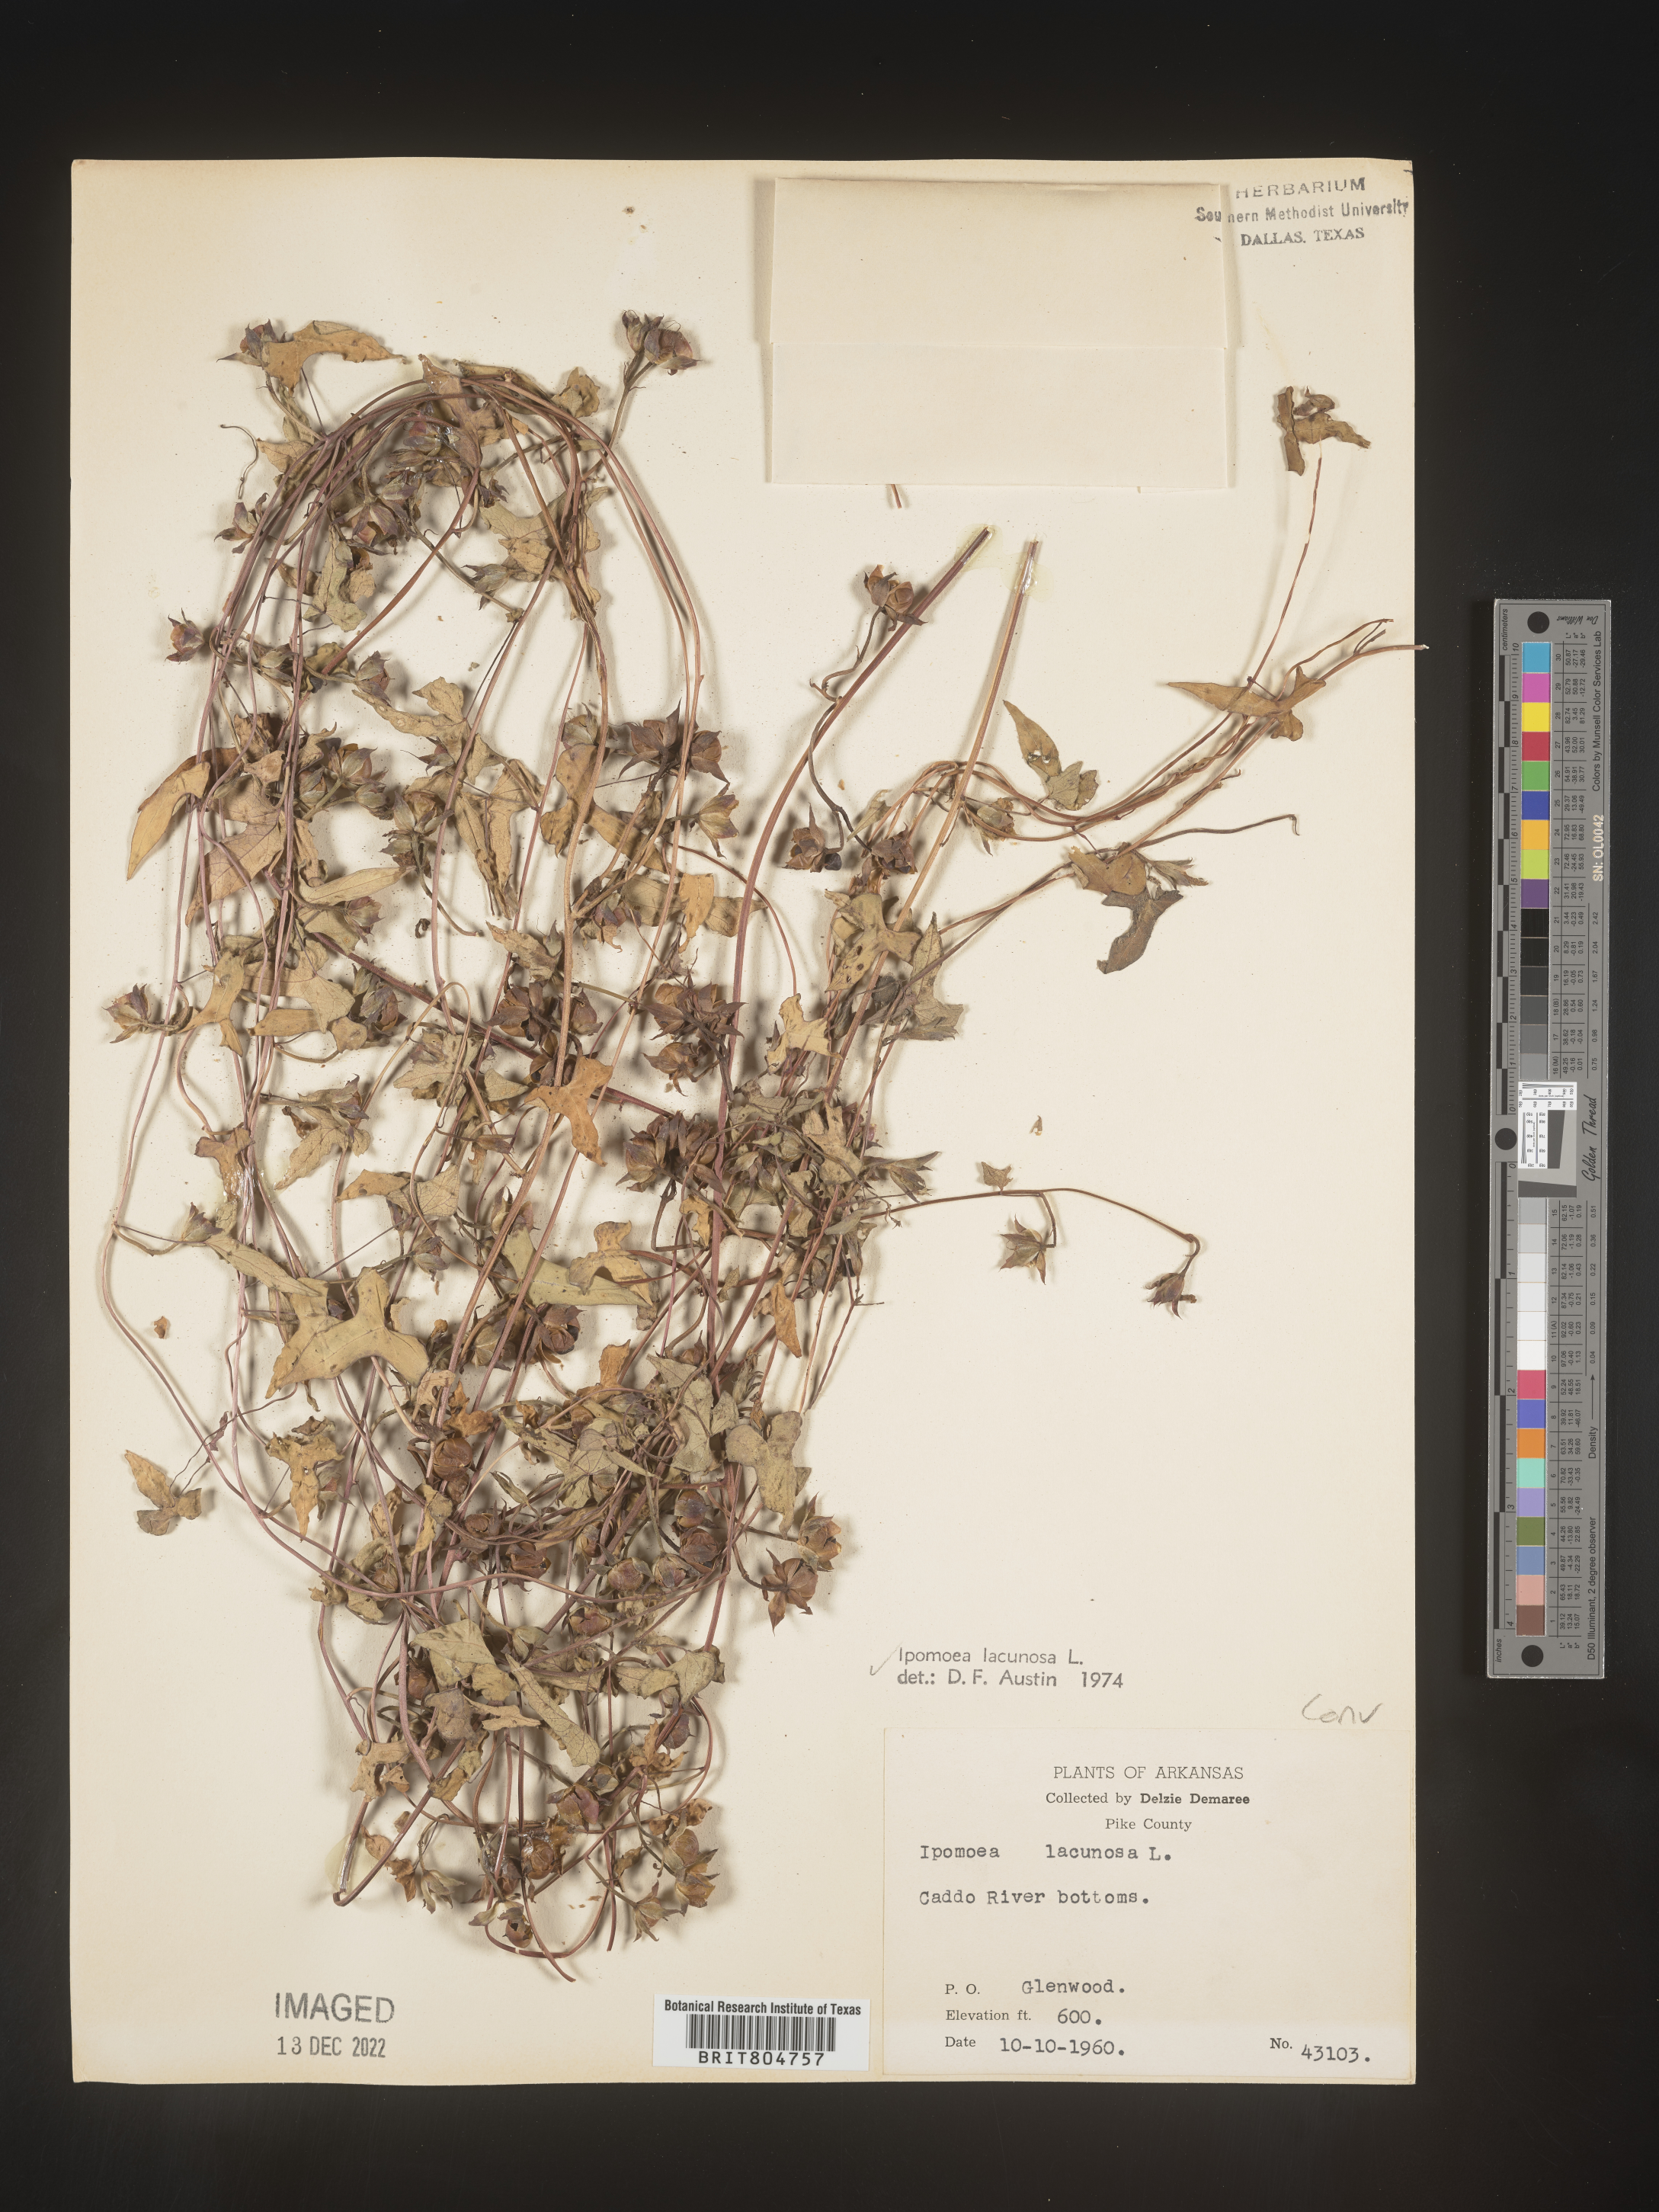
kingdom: Plantae
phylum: Tracheophyta
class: Magnoliopsida
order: Solanales
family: Convolvulaceae
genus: Ipomoea
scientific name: Ipomoea lacunosa
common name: White morning-glory
